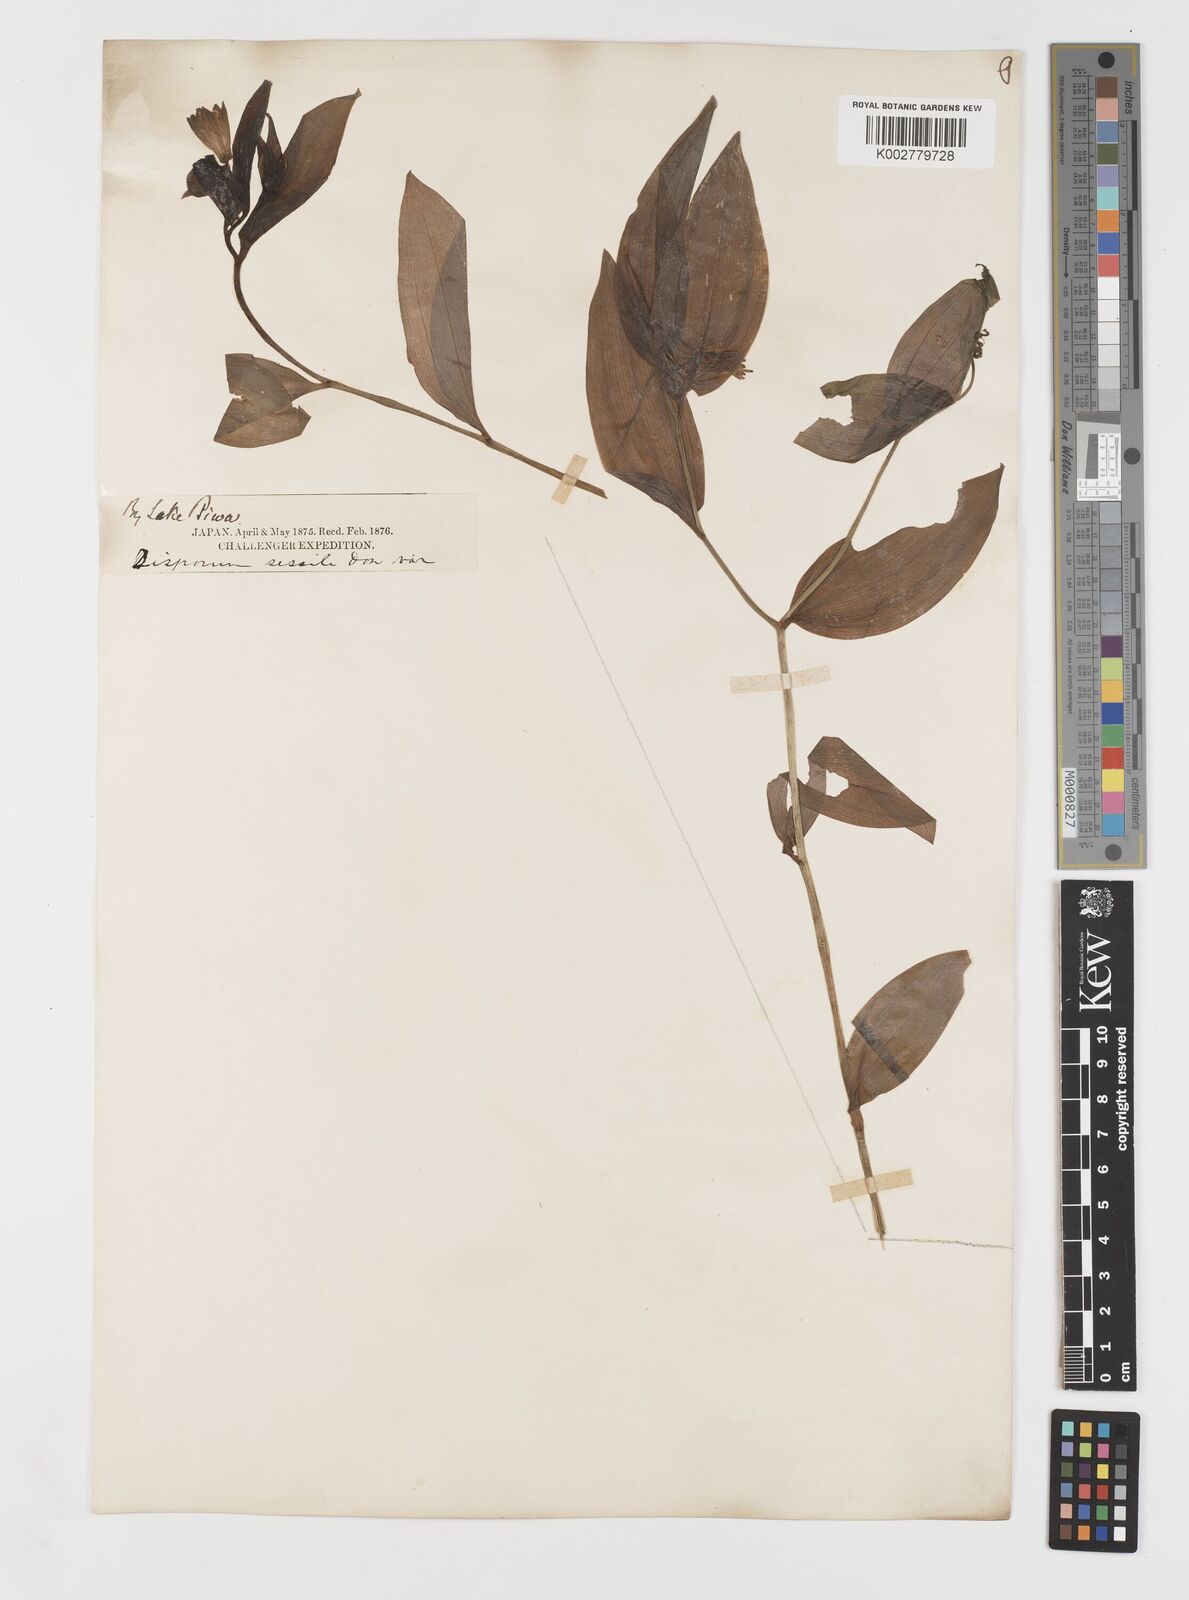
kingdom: Plantae
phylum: Tracheophyta
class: Liliopsida
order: Liliales
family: Colchicaceae
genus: Disporum
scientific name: Disporum sessile
